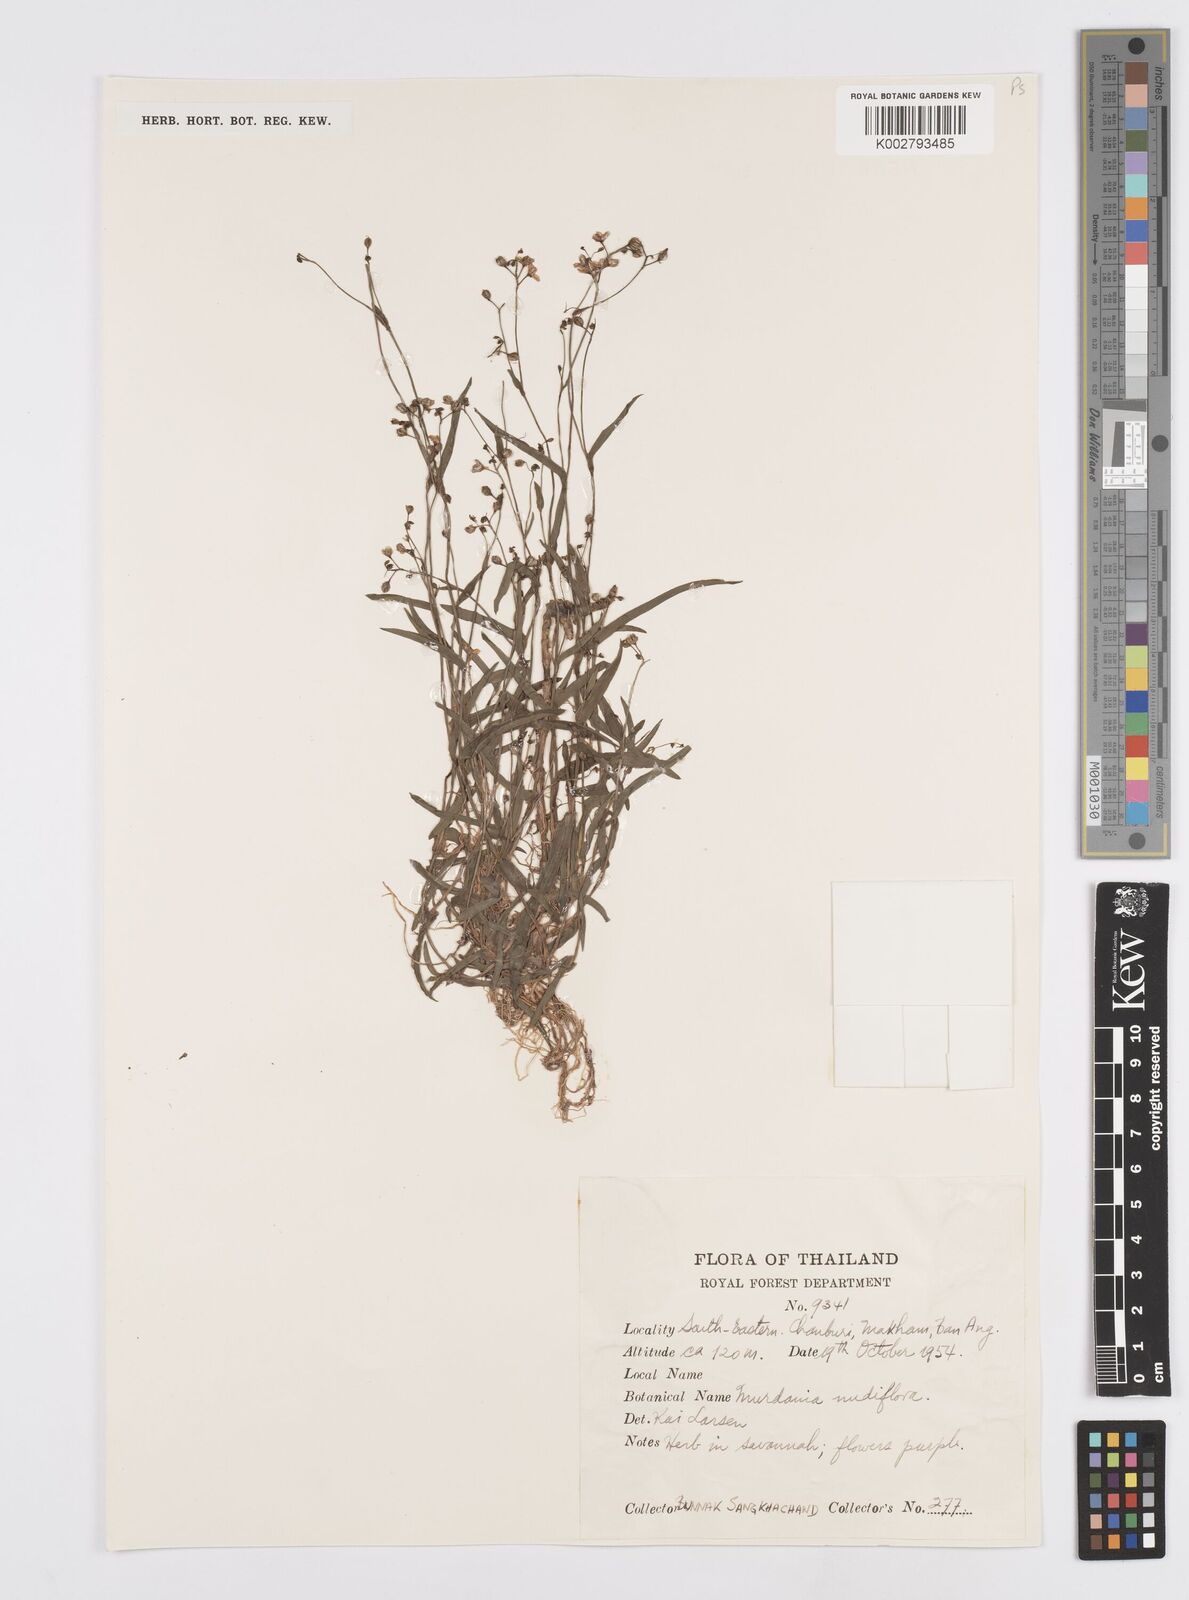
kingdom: Plantae
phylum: Tracheophyta
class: Liliopsida
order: Commelinales
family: Commelinaceae
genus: Murdannia
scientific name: Murdannia nudiflora
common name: Nakedstem dewflower
